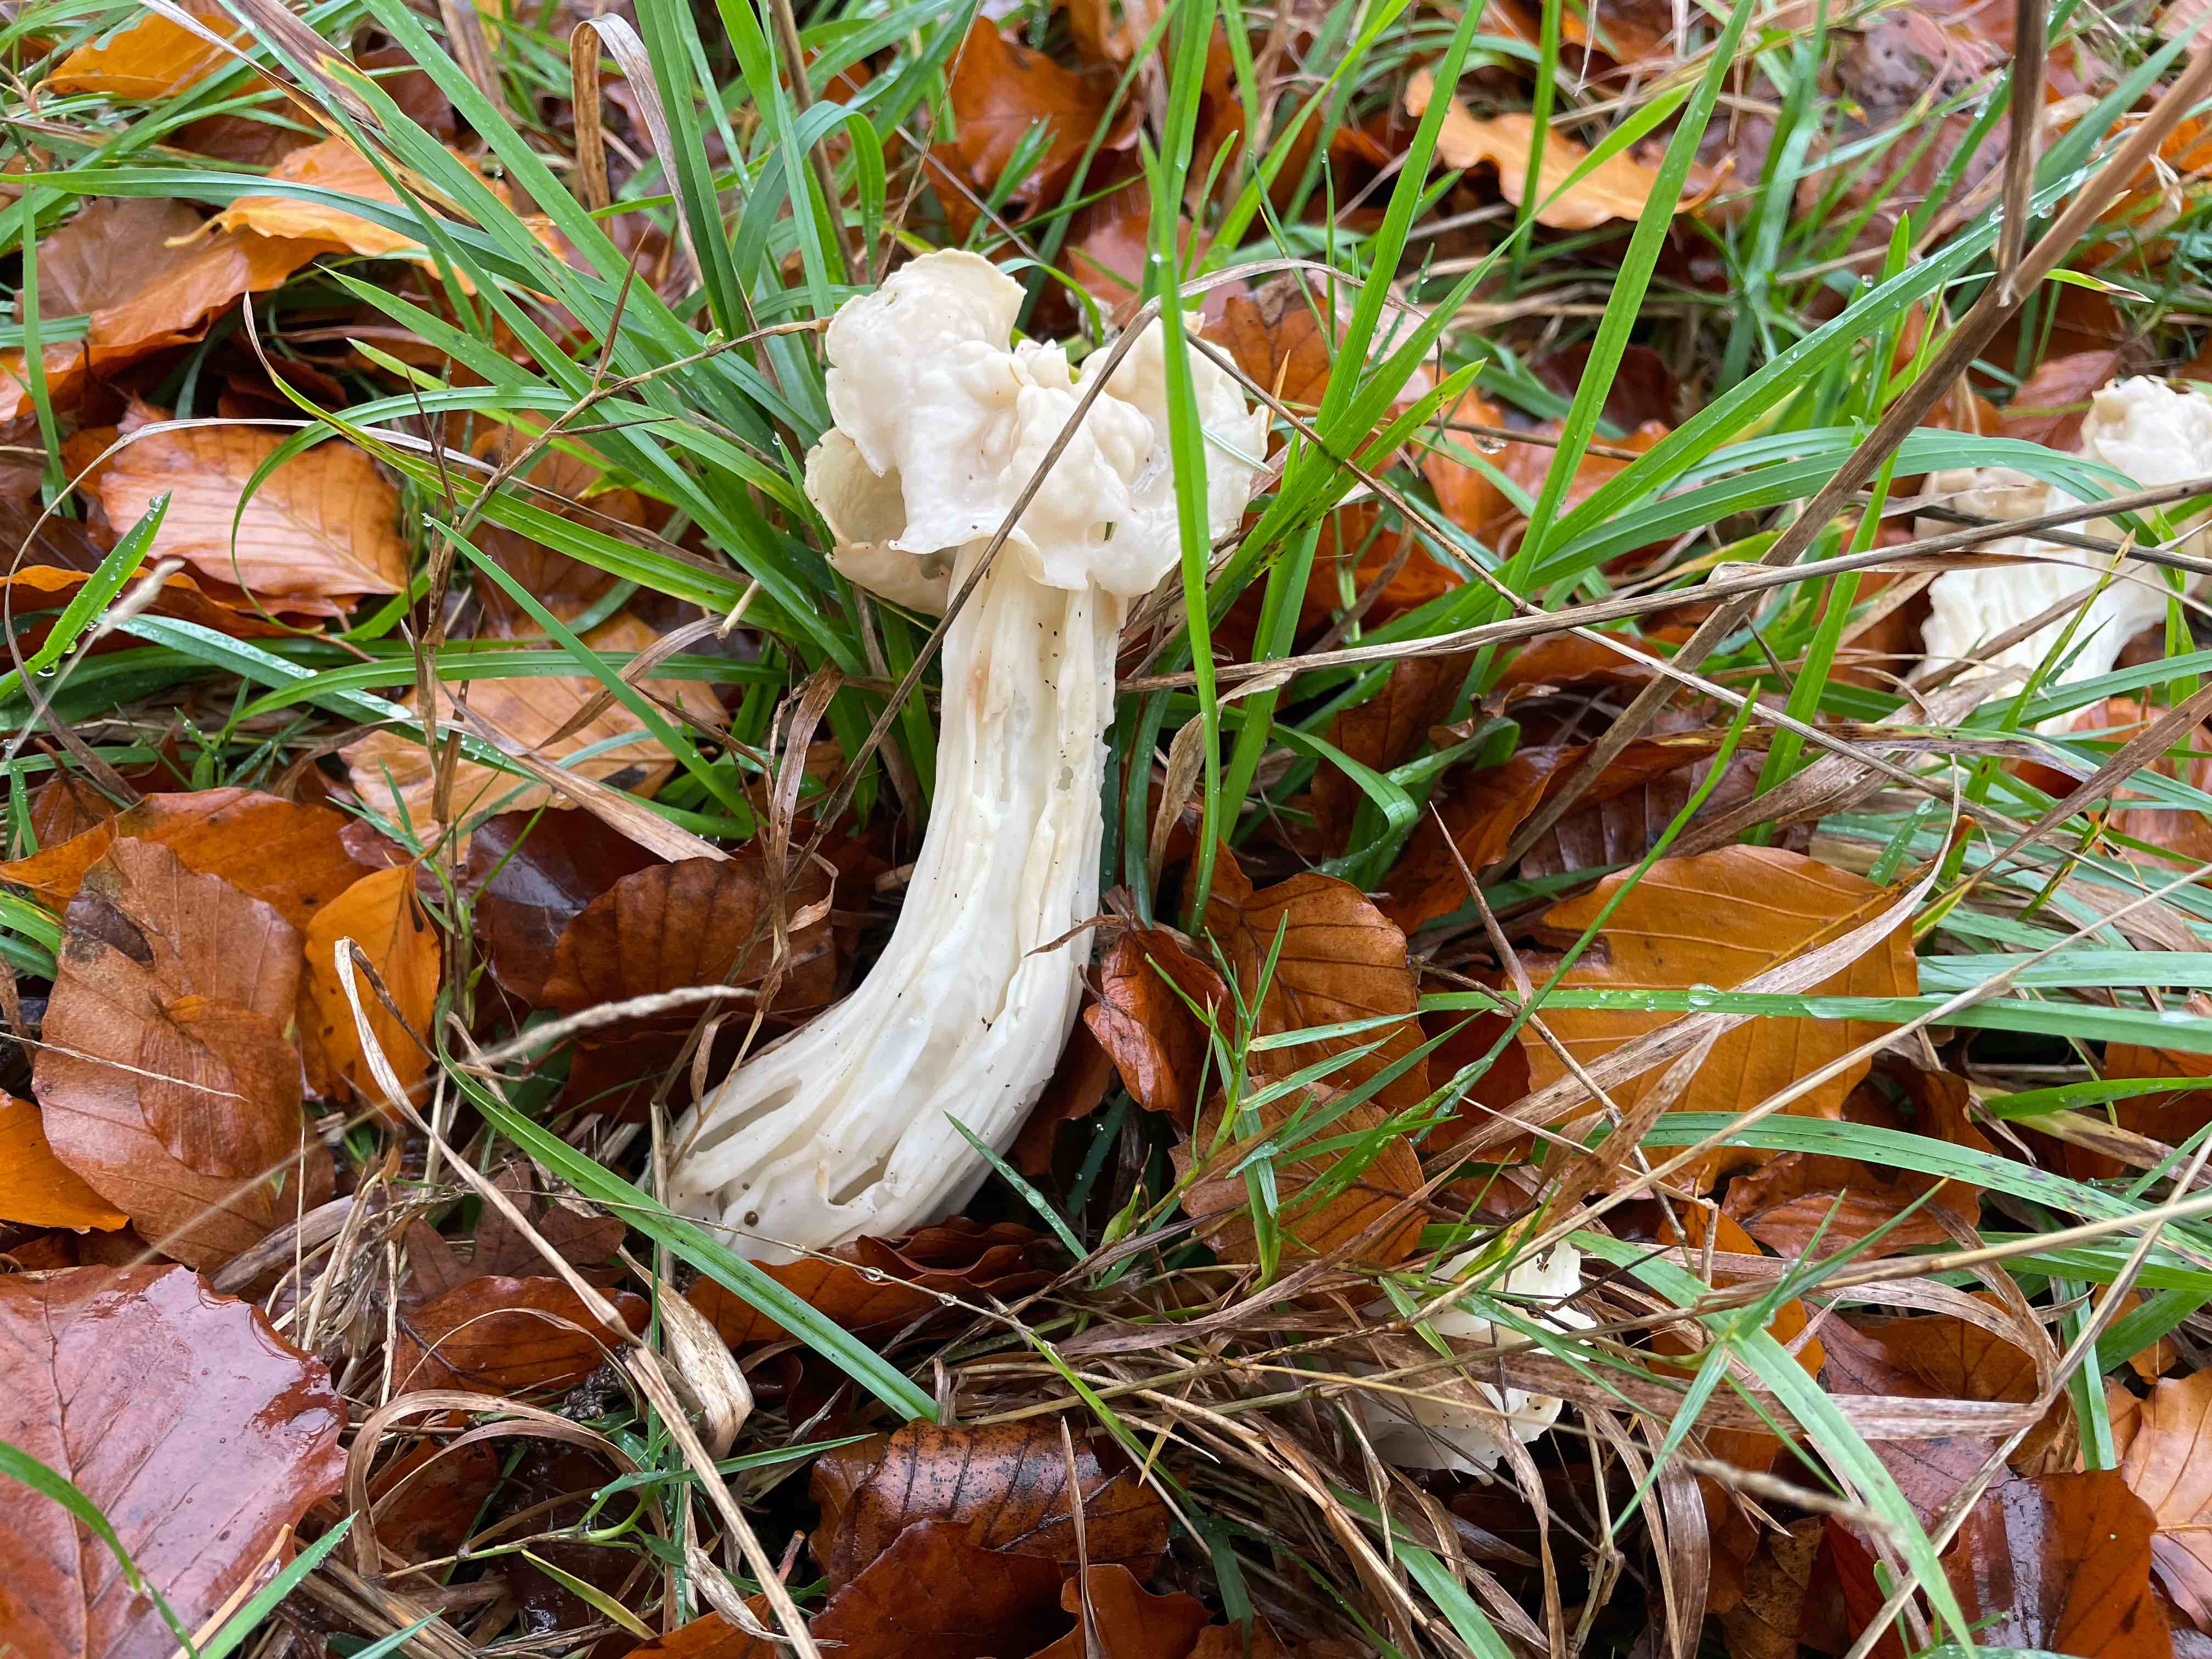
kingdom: Fungi
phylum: Ascomycota
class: Pezizomycetes
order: Pezizales
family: Helvellaceae
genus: Helvella
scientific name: Helvella crispa
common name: kruset foldhat
